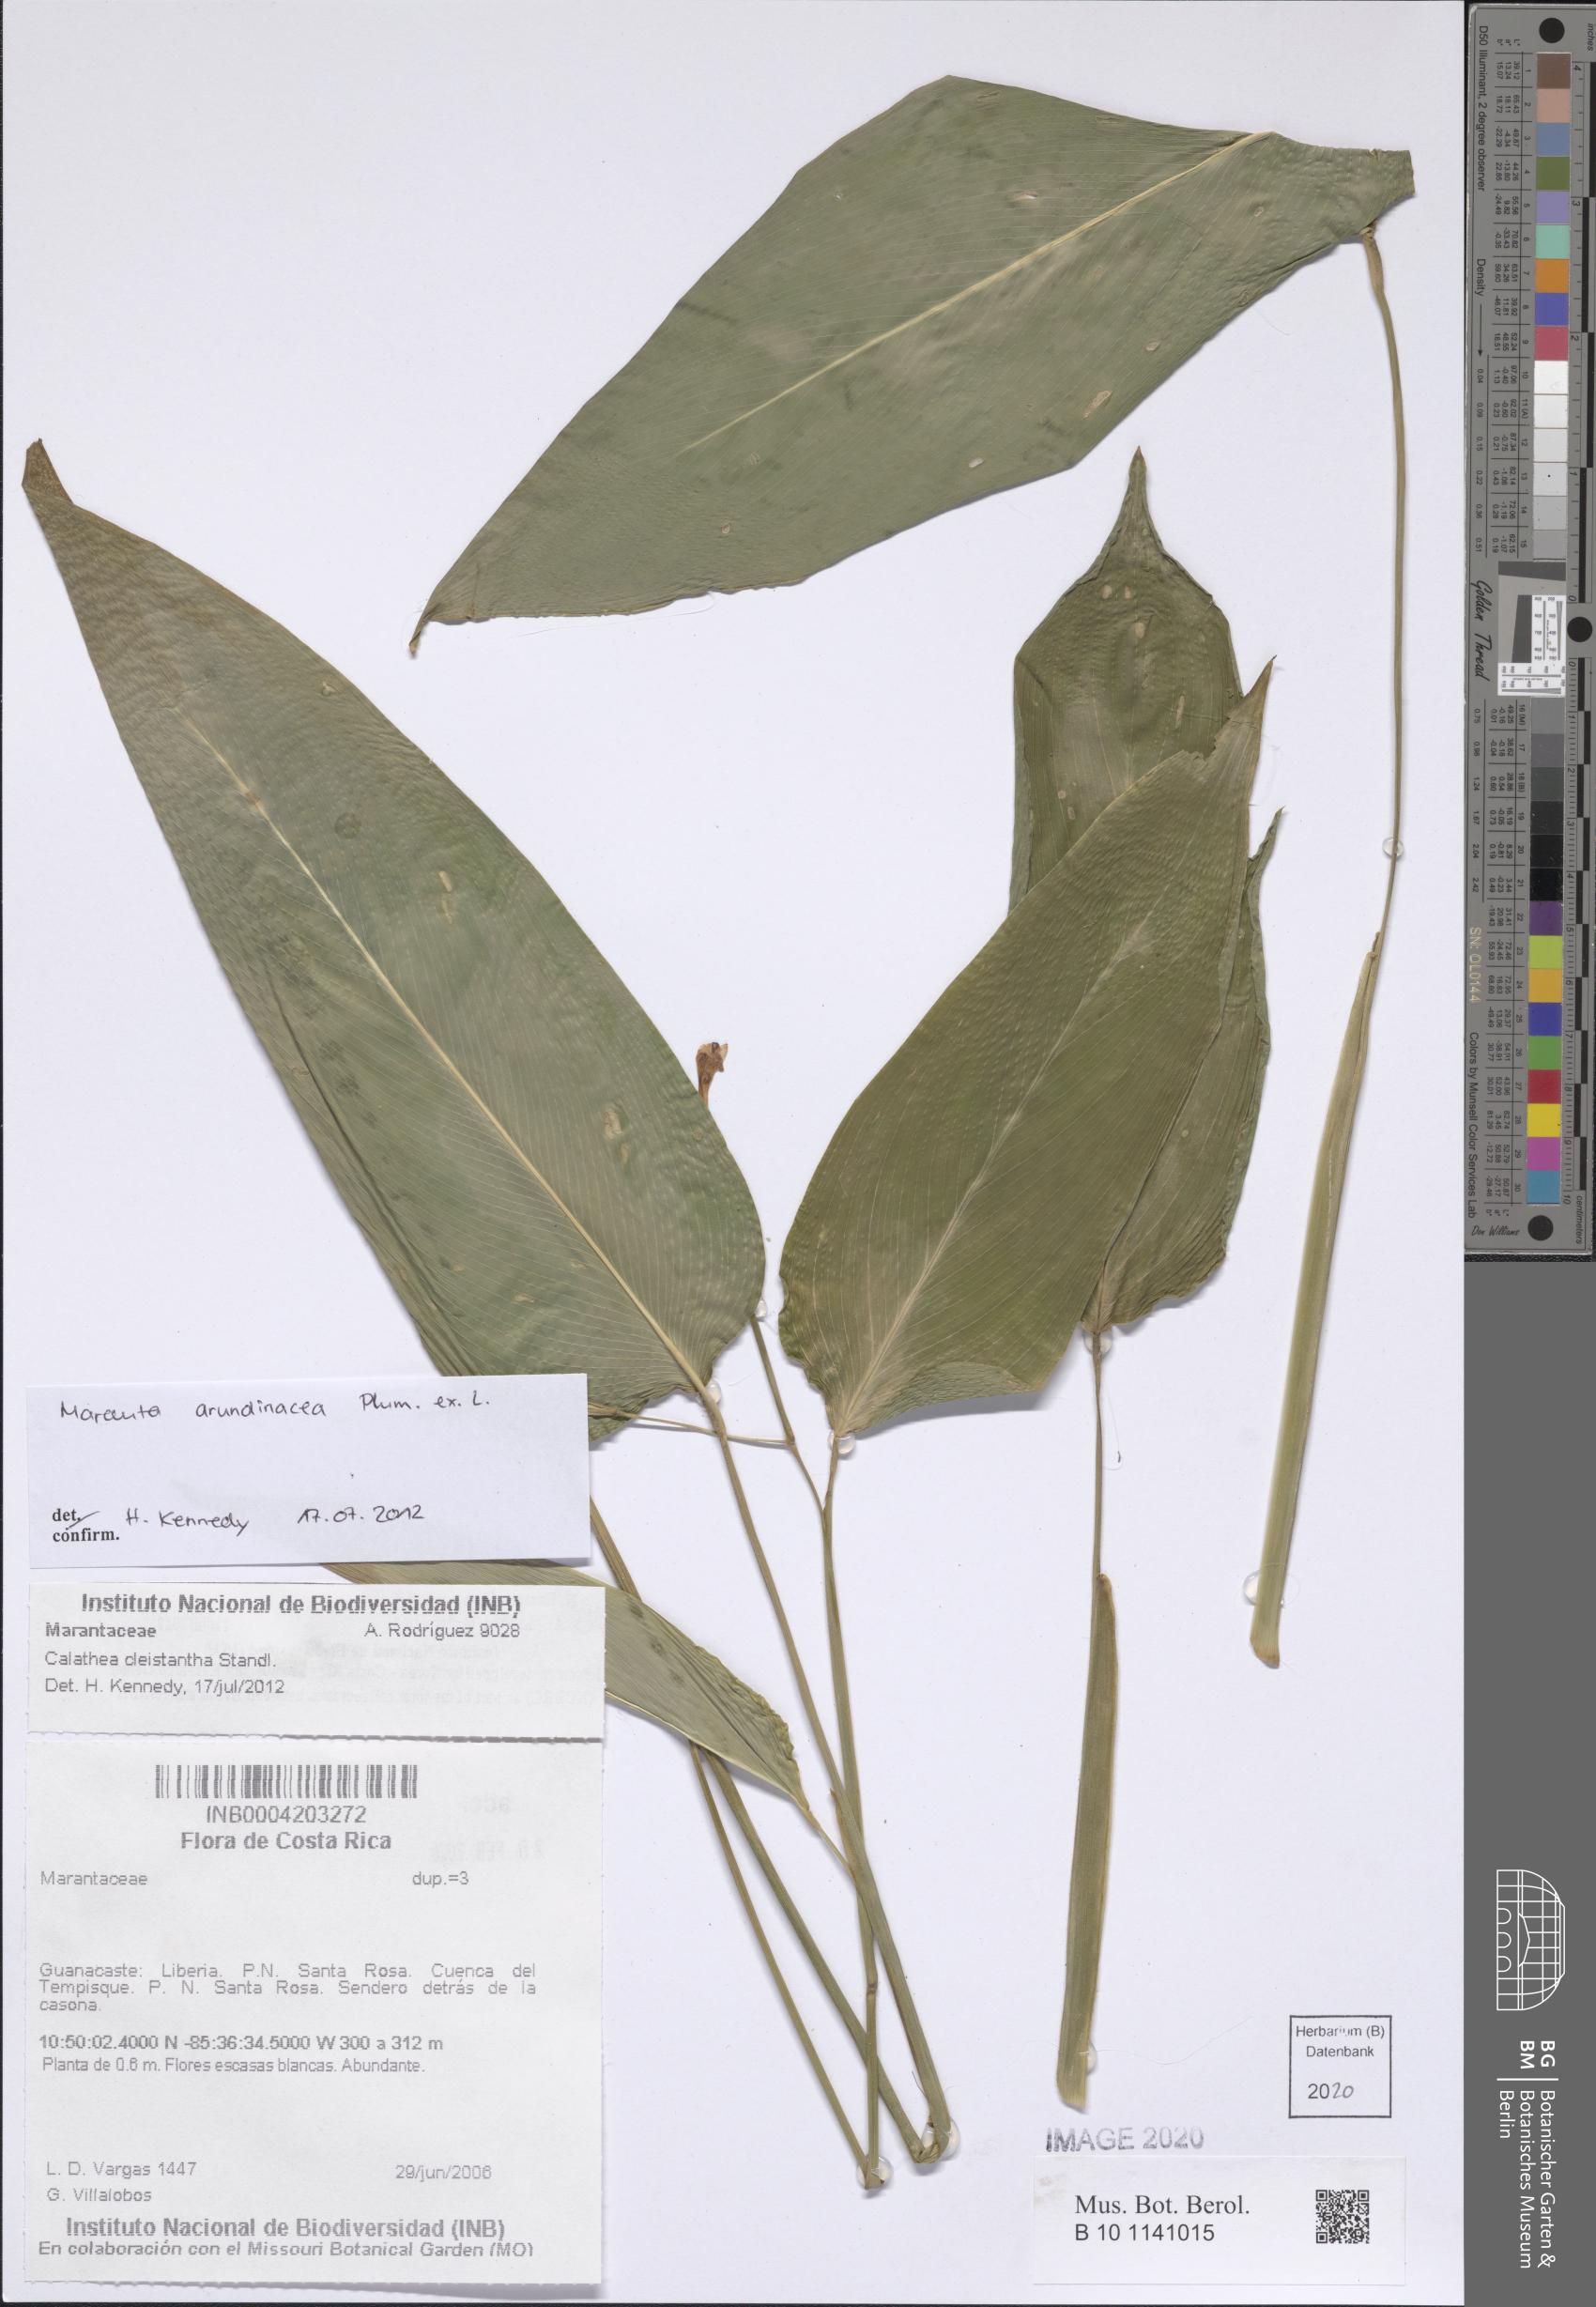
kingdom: Plantae
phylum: Tracheophyta
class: Liliopsida
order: Zingiberales
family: Marantaceae
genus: Maranta
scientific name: Maranta arundinacea
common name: Arrowroot
